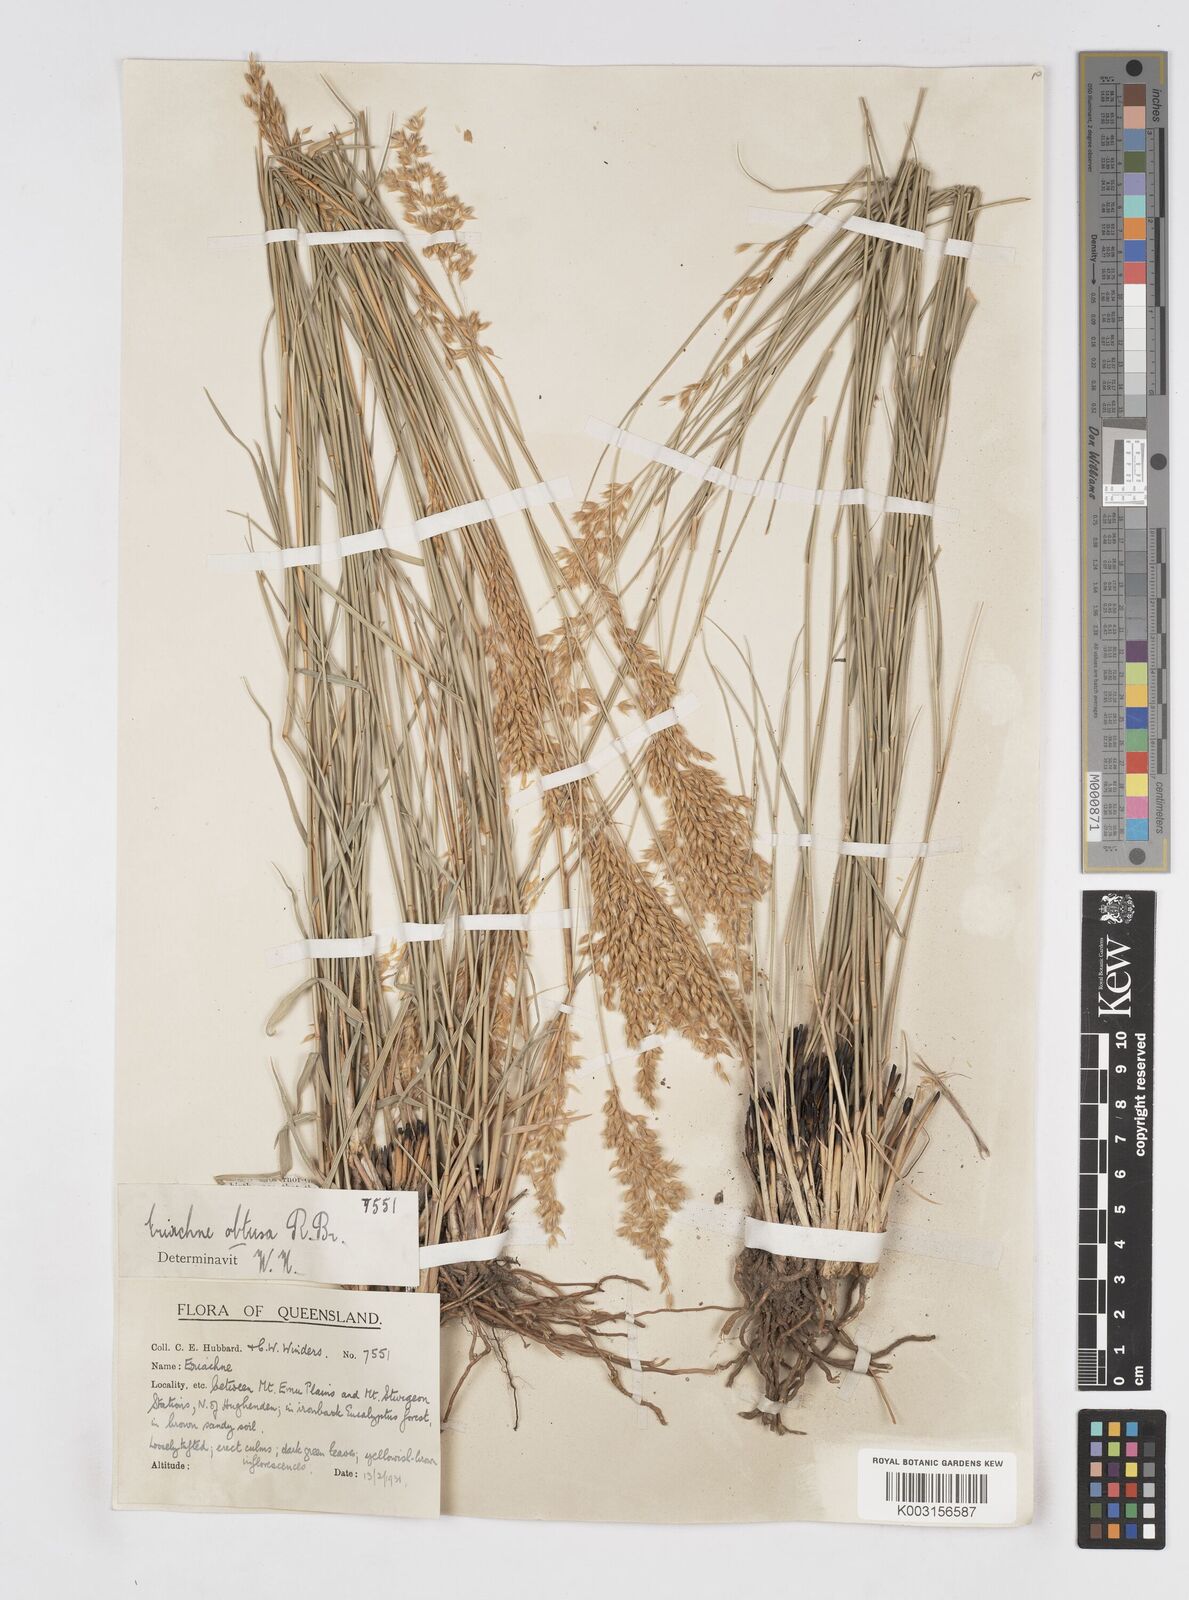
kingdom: Plantae
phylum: Tracheophyta
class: Liliopsida
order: Poales
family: Poaceae
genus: Eriachne
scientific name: Eriachne obtusa
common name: Northern wanderrie grass
